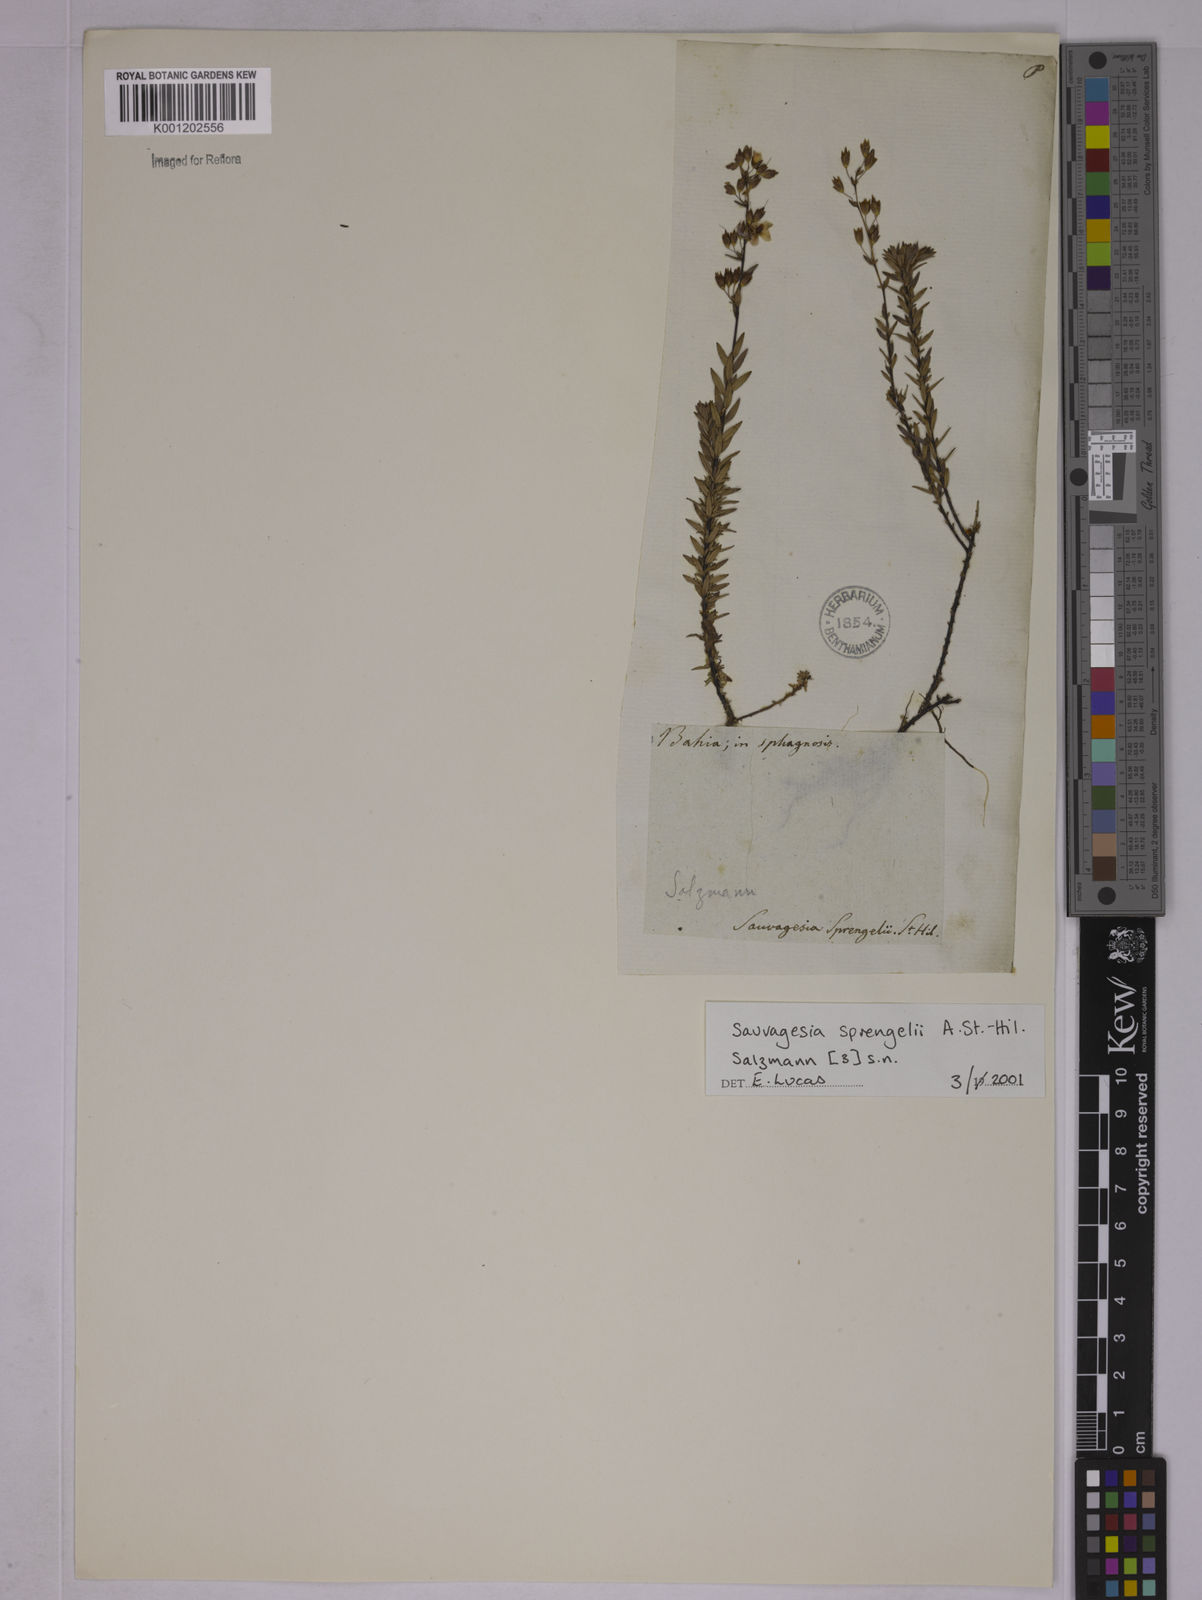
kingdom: Plantae
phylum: Tracheophyta
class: Magnoliopsida
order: Malpighiales
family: Ochnaceae
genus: Sauvagesia
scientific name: Sauvagesia sprengelii
